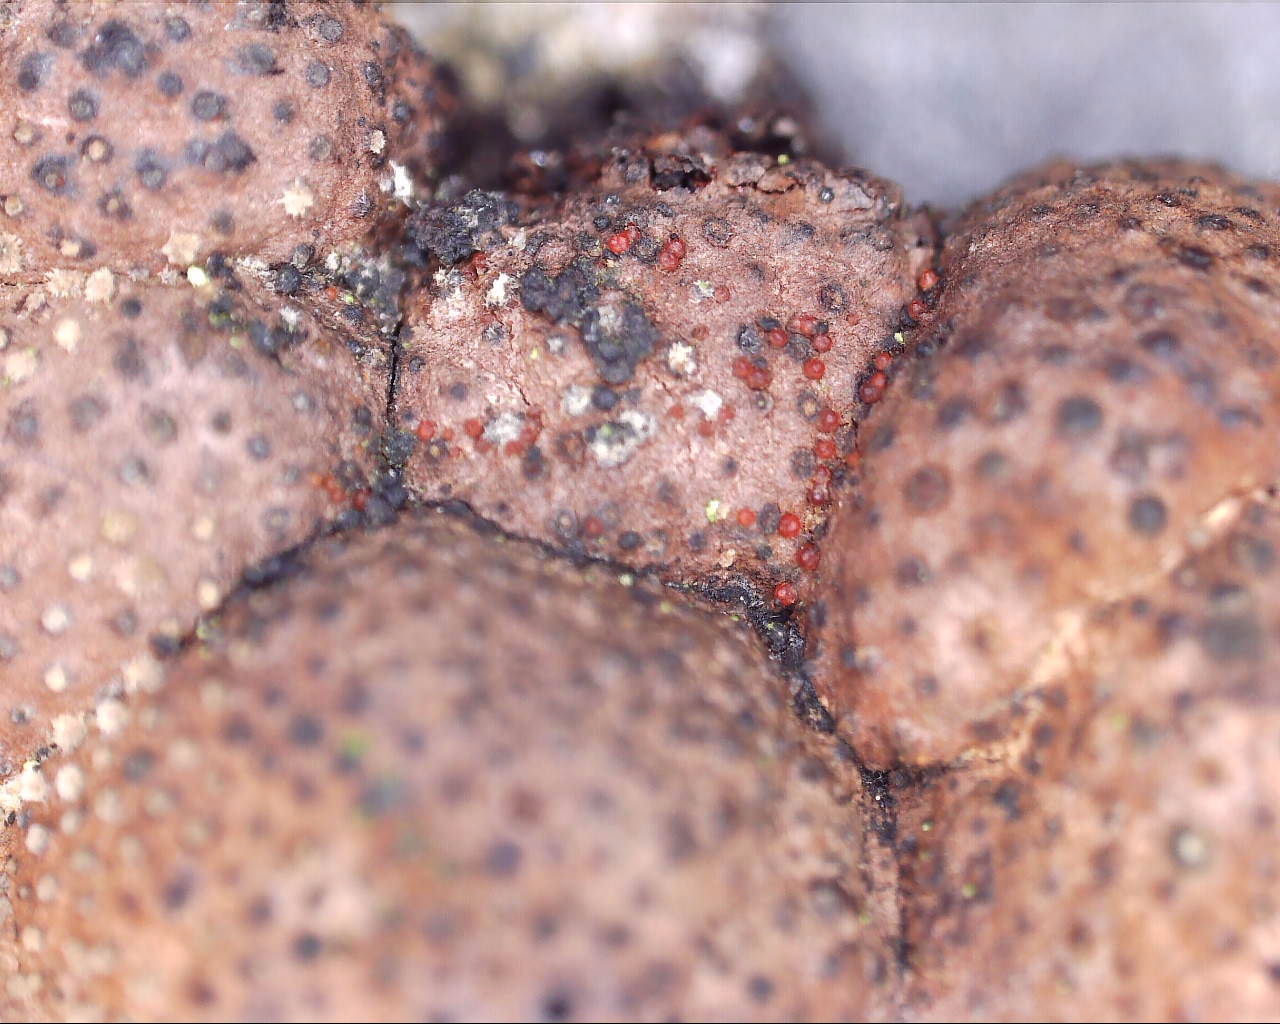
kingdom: Fungi
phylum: Ascomycota
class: Sordariomycetes
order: Hypocreales
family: Nectriaceae
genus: Cosmospora
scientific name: Cosmospora arxii
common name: kuljordbær-cinnobersvamp
